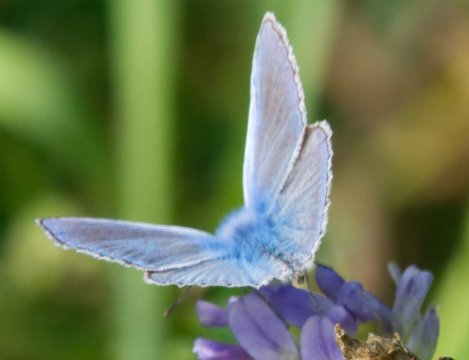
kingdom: Animalia
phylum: Arthropoda
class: Insecta
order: Lepidoptera
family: Lycaenidae
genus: Polyommatus
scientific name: Polyommatus icarus
